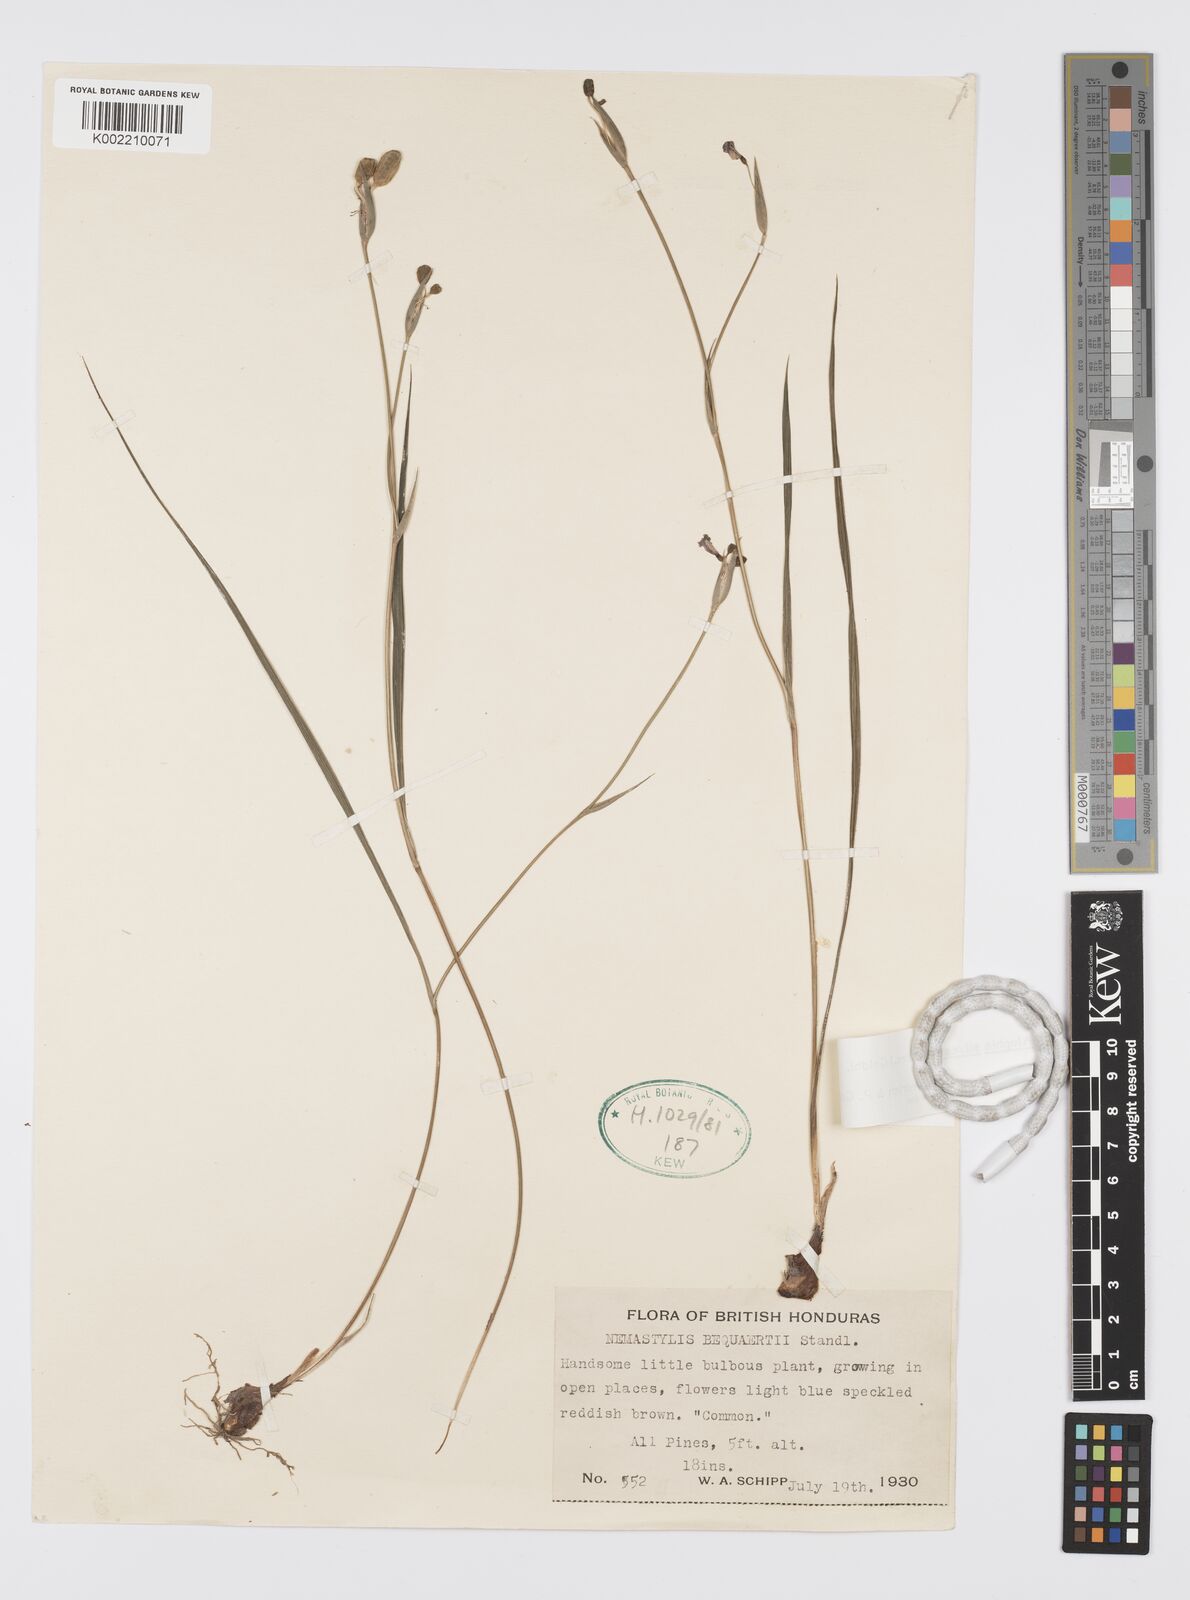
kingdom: Plantae
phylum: Tracheophyta
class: Liliopsida
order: Asparagales
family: Iridaceae
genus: Alophia
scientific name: Alophia silvestris
